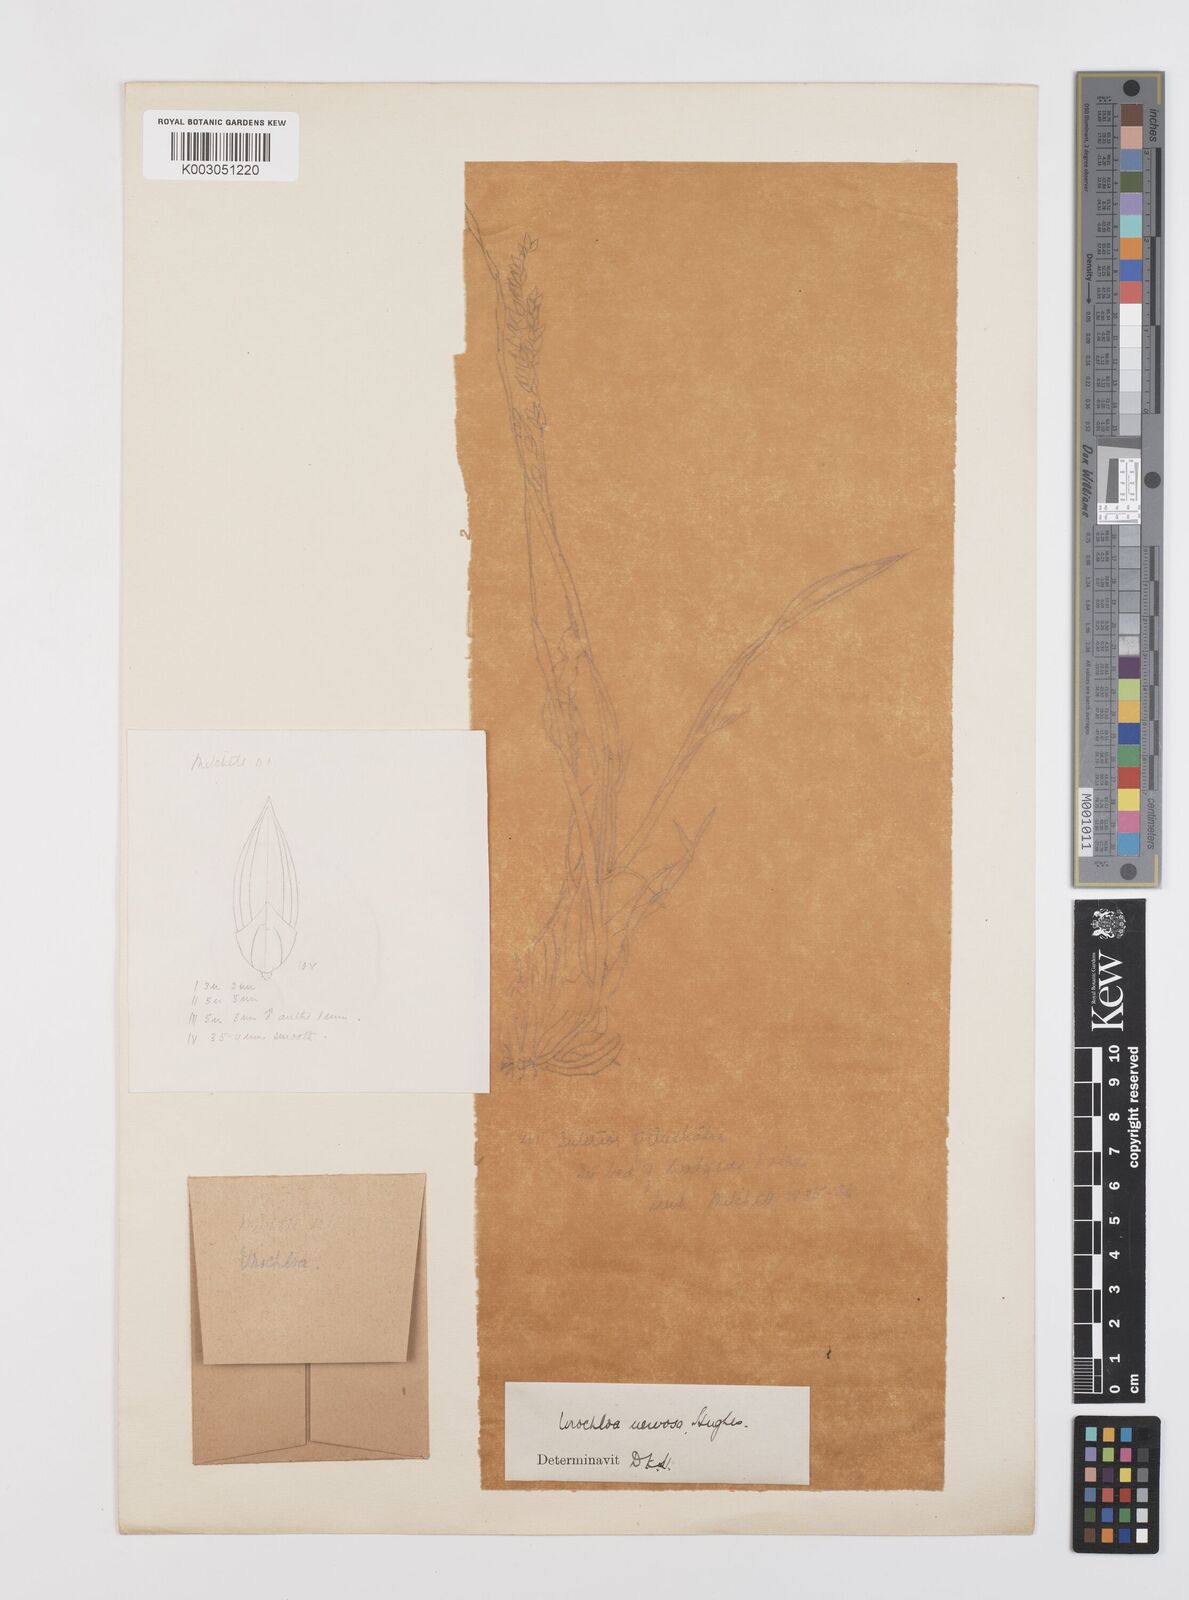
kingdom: Plantae
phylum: Tracheophyta
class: Liliopsida
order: Poales
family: Poaceae
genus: Urochloa
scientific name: Urochloa praetervisa
